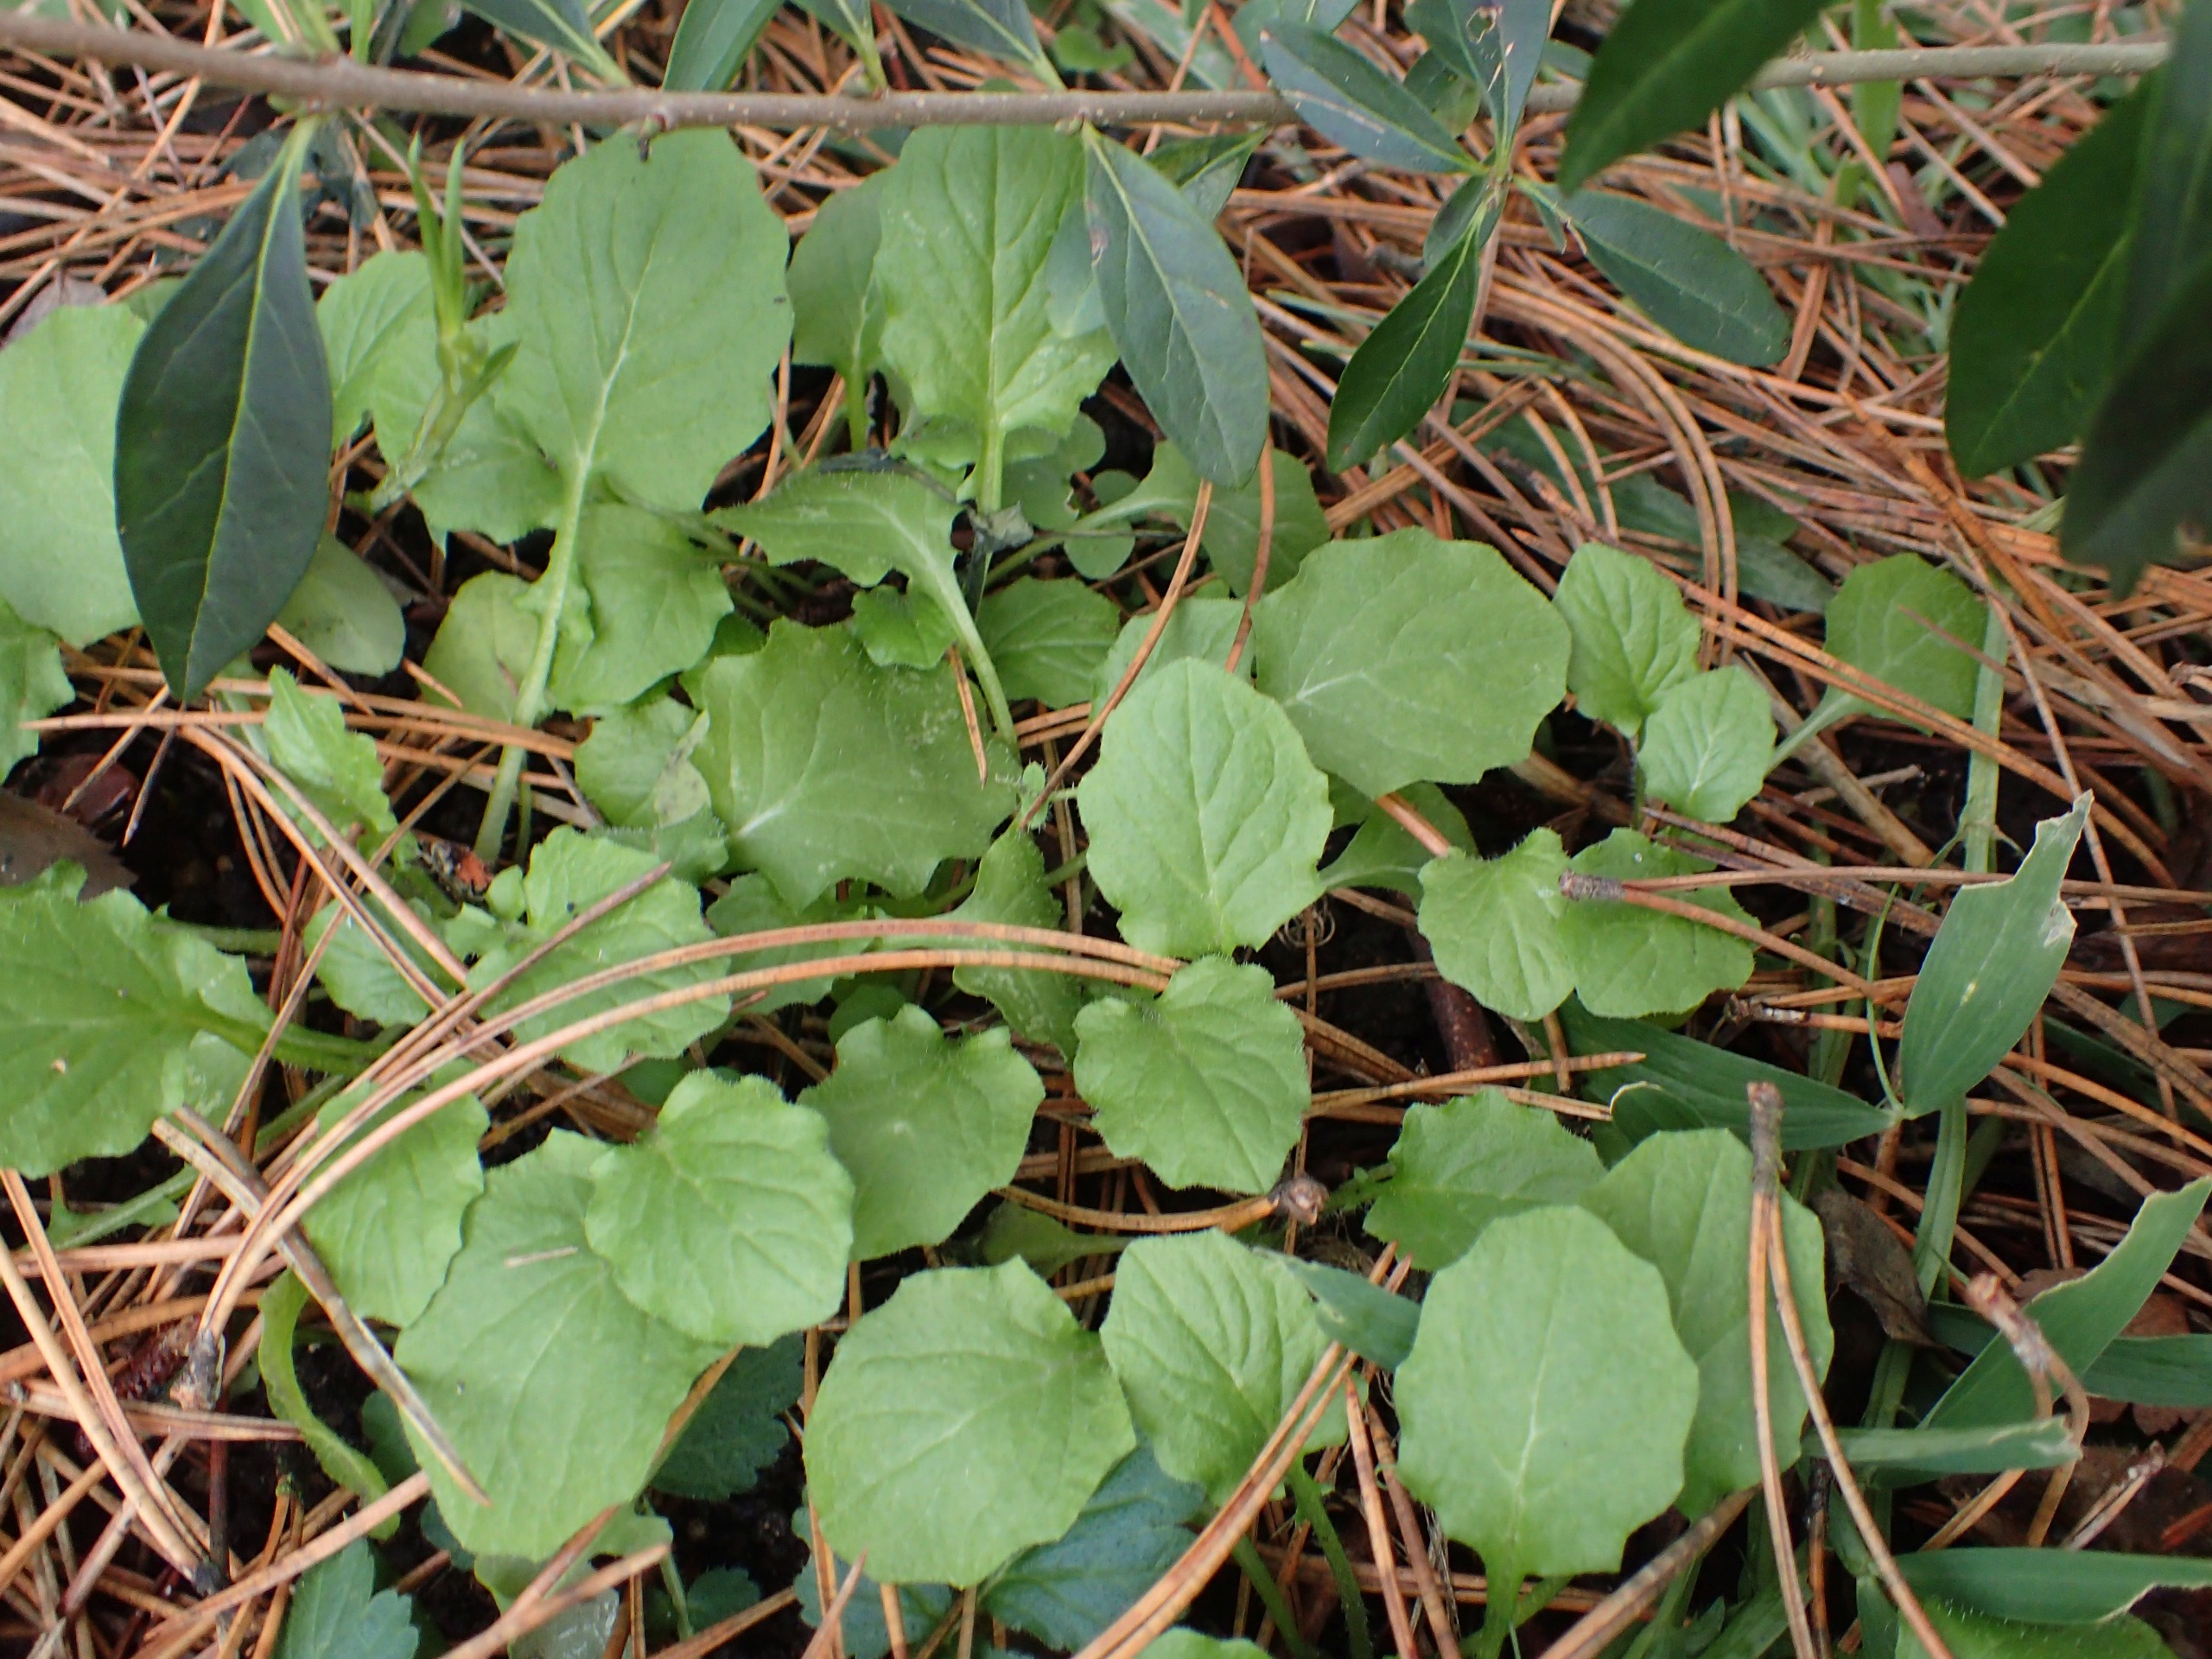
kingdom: Plantae
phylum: Tracheophyta
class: Magnoliopsida
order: Asterales
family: Asteraceae
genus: Lapsana
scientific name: Lapsana communis
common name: Haremad
